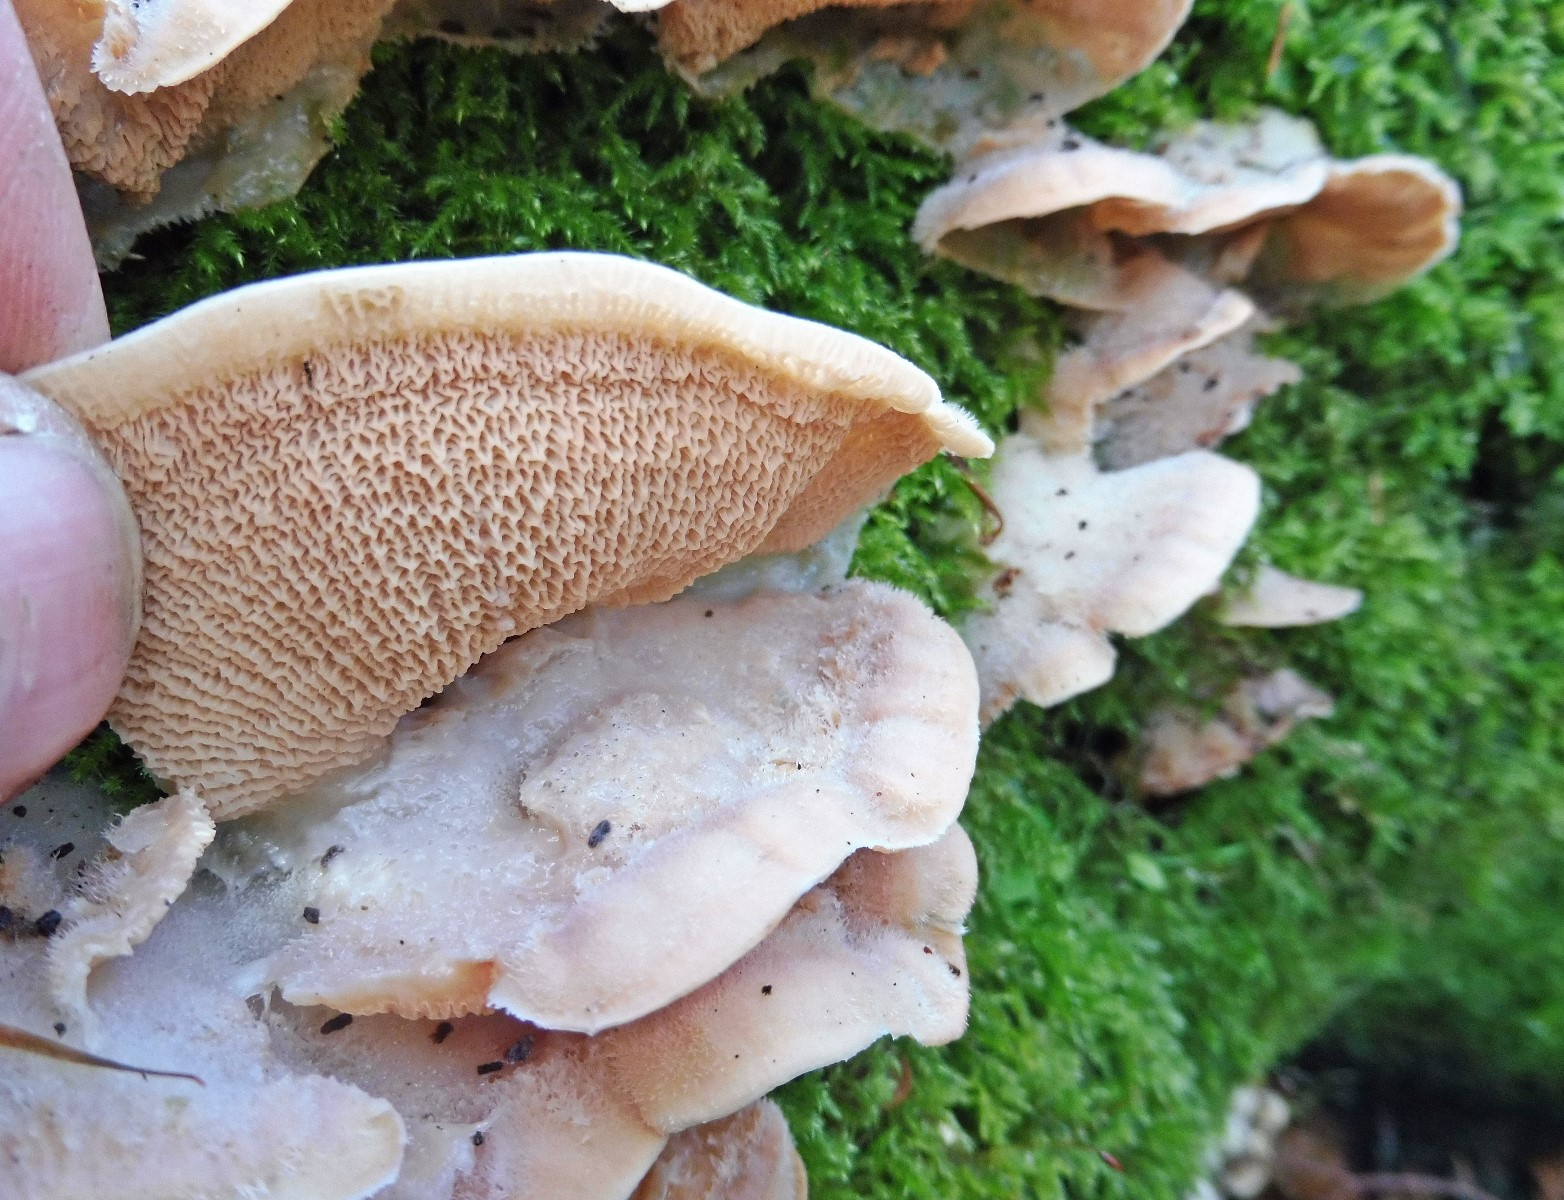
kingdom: Fungi
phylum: Basidiomycota
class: Agaricomycetes
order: Polyporales
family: Meruliaceae
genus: Phlebia
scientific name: Phlebia tremellosa
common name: bævrende åresvamp
